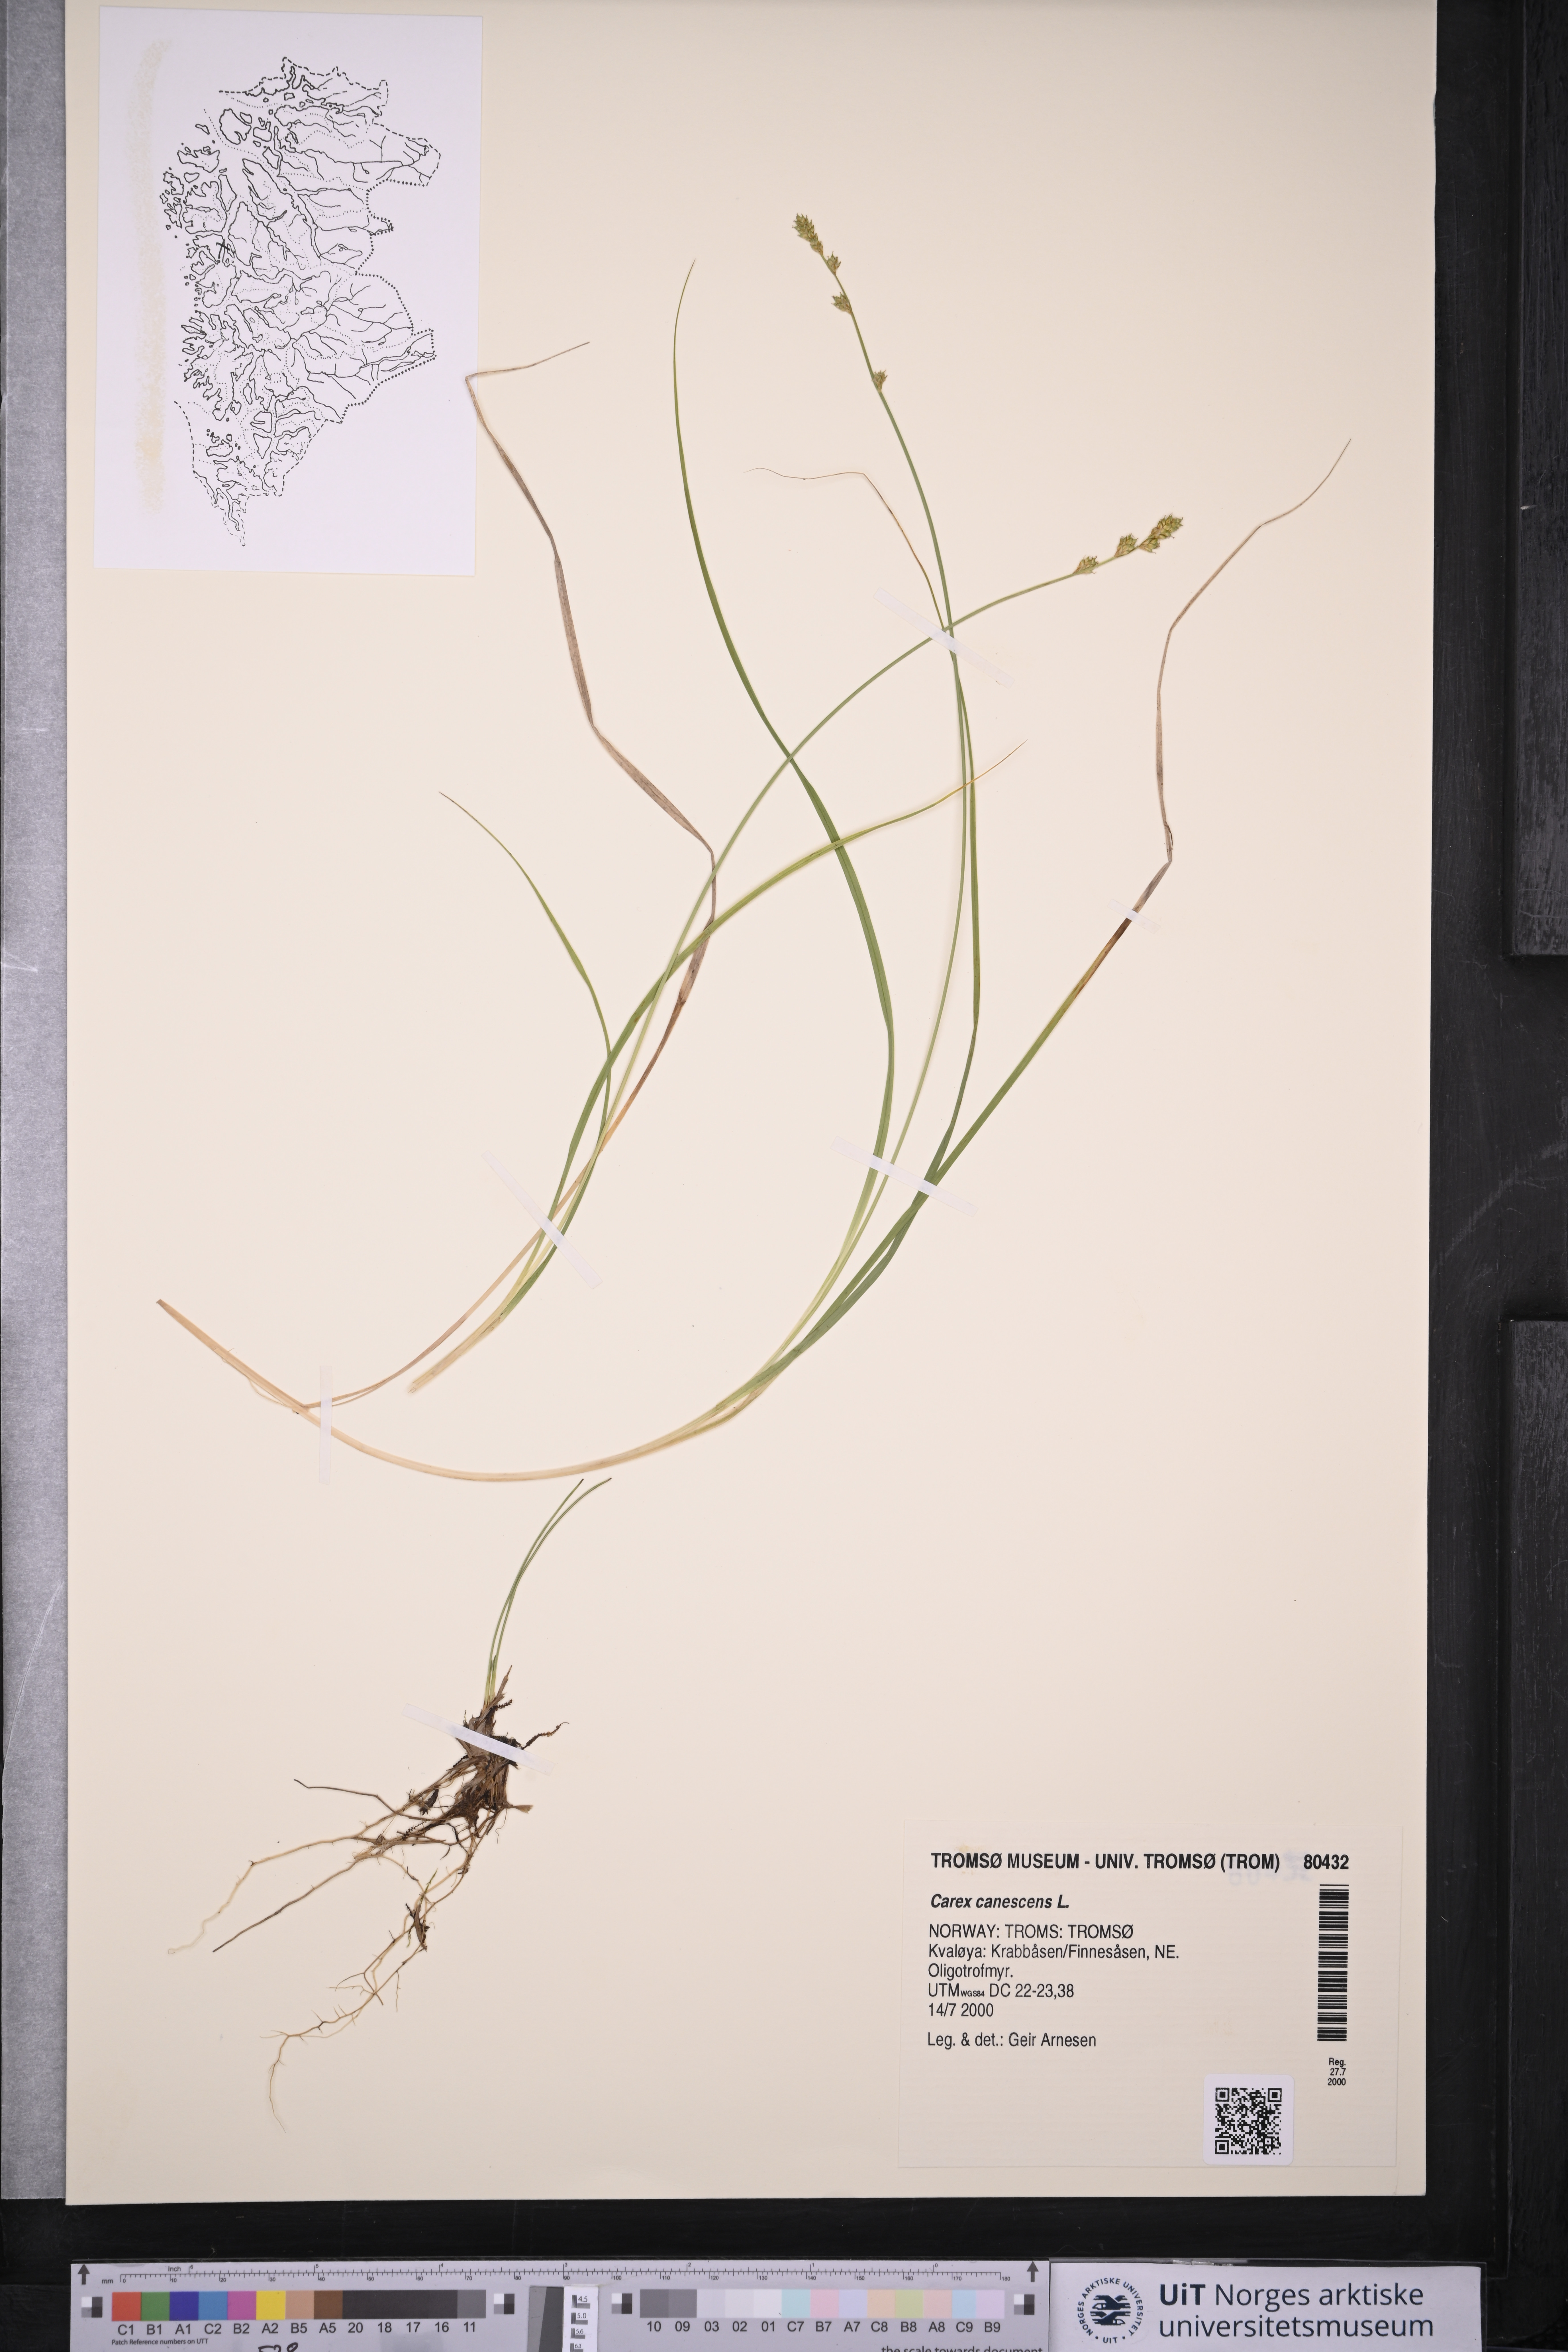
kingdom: Plantae
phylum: Tracheophyta
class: Liliopsida
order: Poales
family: Cyperaceae
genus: Carex
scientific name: Carex canescens
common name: White sedge
